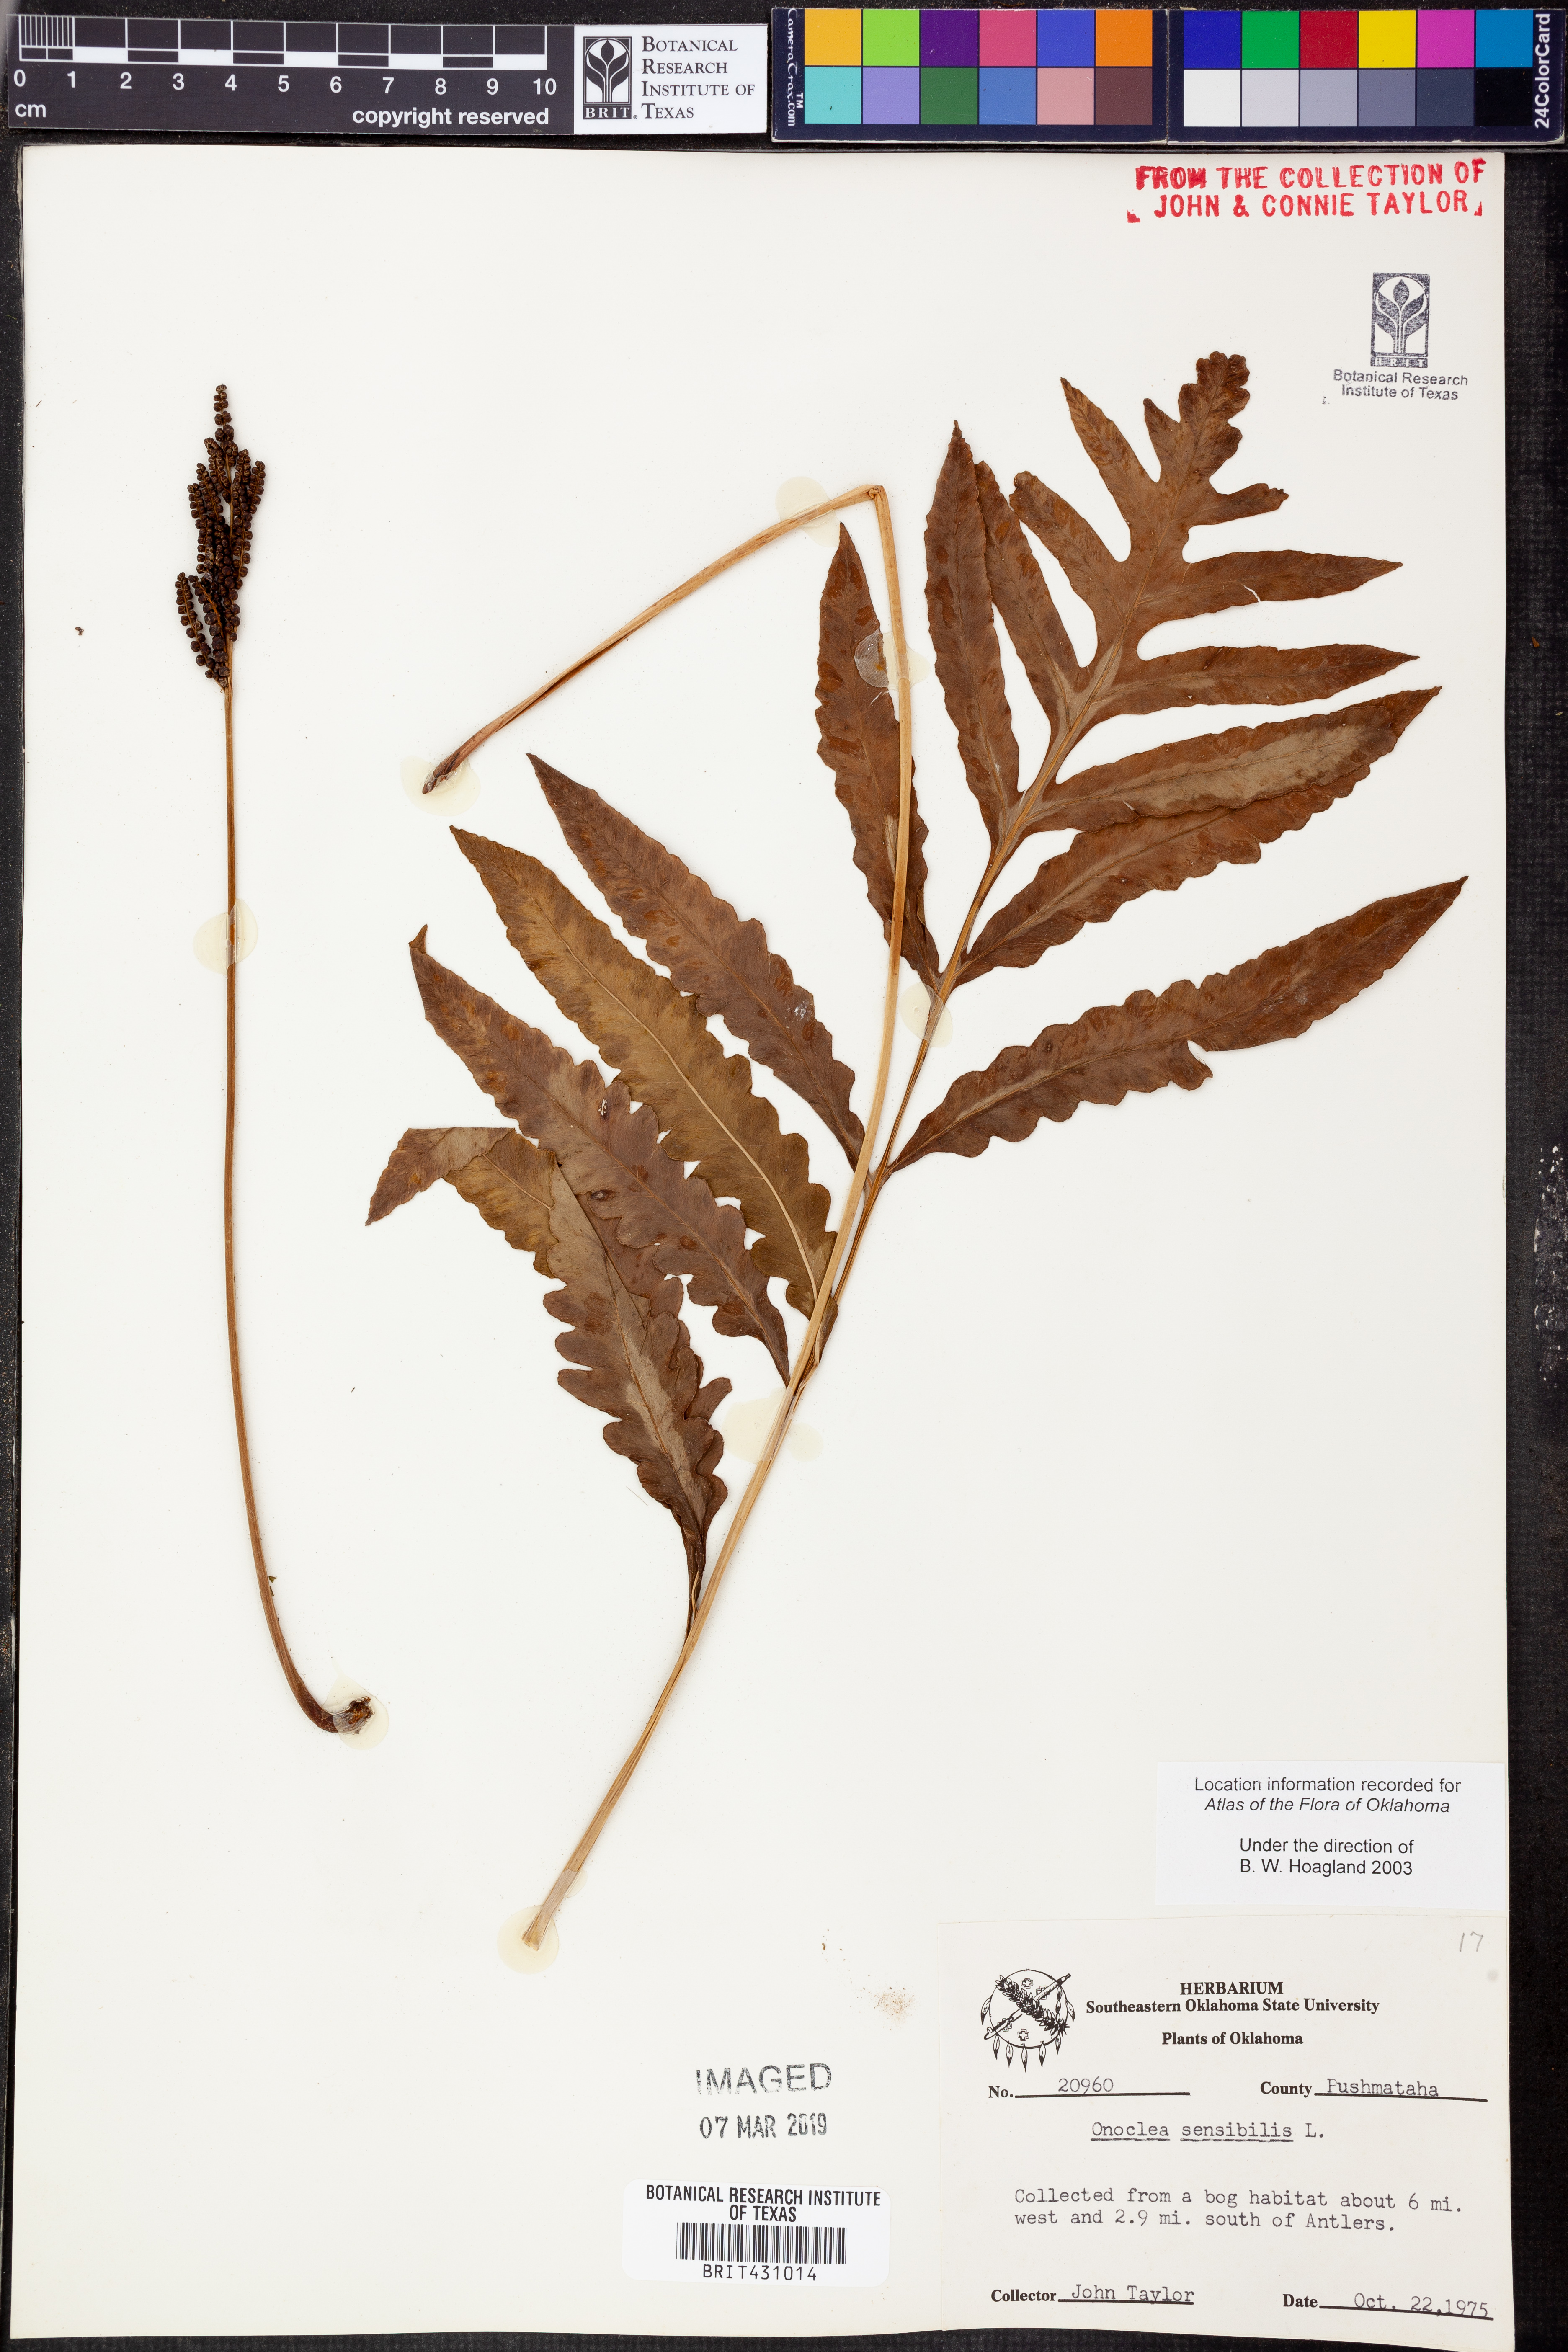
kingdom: Plantae
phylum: Tracheophyta
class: Polypodiopsida
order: Polypodiales
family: Onocleaceae
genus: Onoclea
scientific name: Onoclea sensibilis
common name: Sensitive fern
